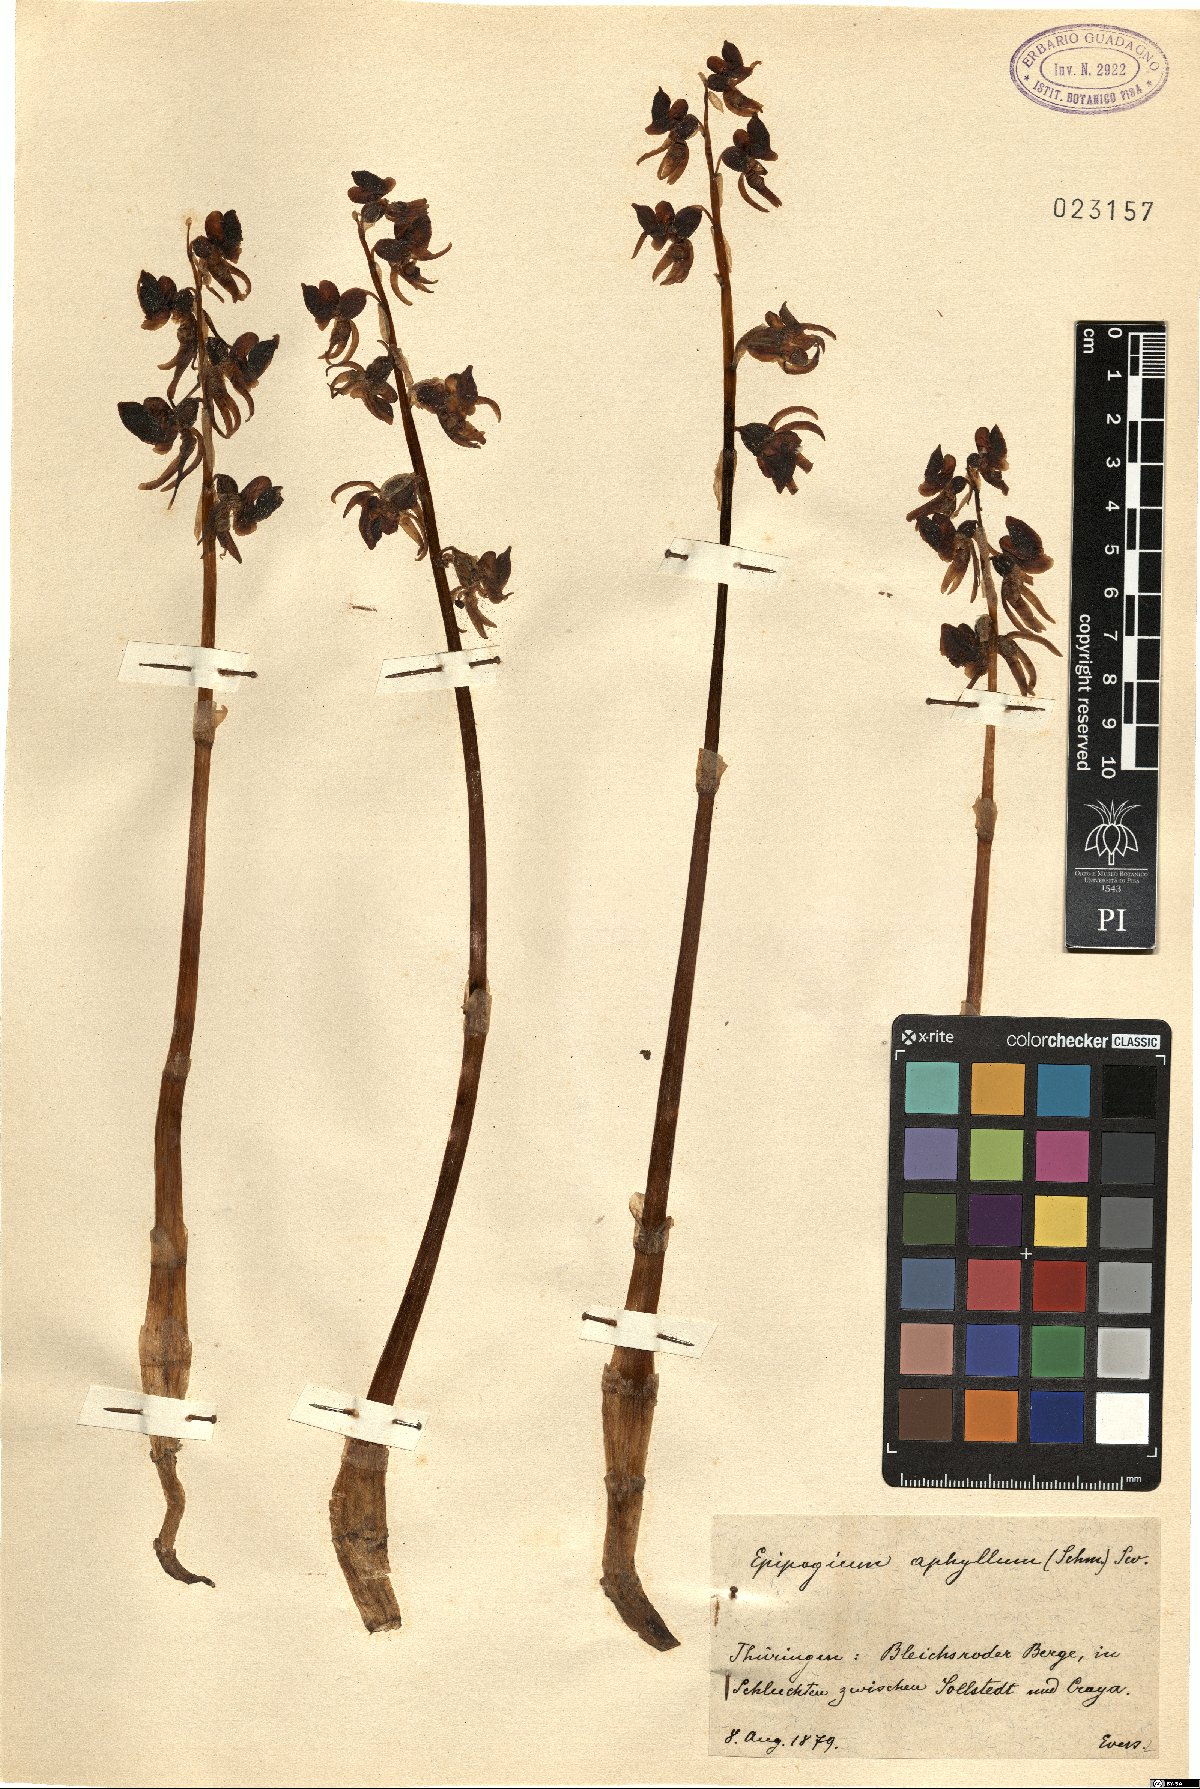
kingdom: Plantae
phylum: Tracheophyta
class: Liliopsida
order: Asparagales
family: Orchidaceae
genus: Epipogium
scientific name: Epipogium aphyllum
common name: Ghost orchid
